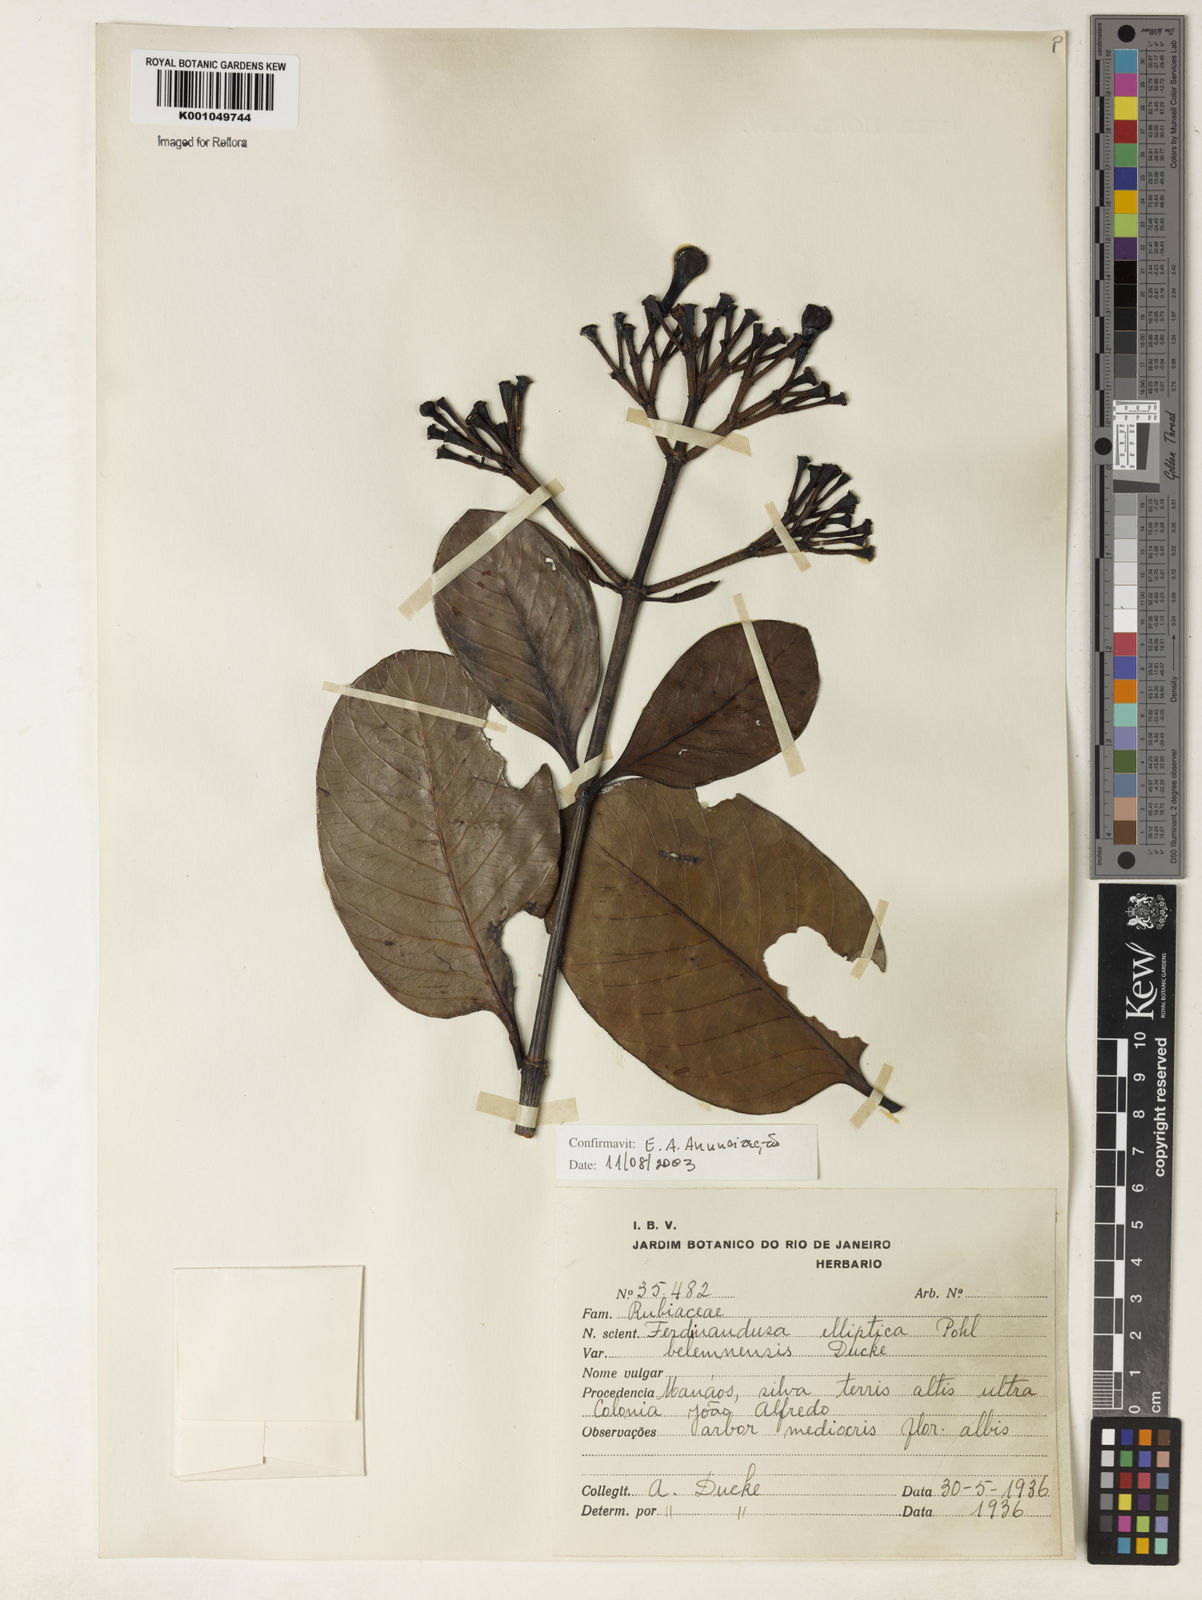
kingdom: Plantae
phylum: Tracheophyta
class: Magnoliopsida
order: Gentianales
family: Rubiaceae
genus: Ferdinandusa
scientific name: Ferdinandusa elliptica
